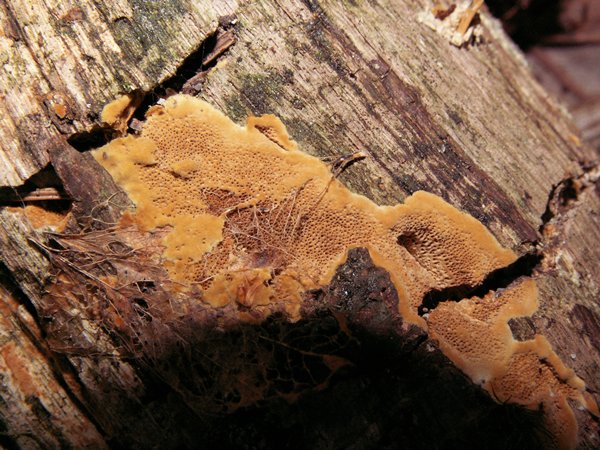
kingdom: Fungi
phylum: Basidiomycota
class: Agaricomycetes
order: Hymenochaetales
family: Hymenochaetaceae
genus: Fuscoporia
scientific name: Fuscoporia ferrea
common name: skorpe-ildporesvamp
